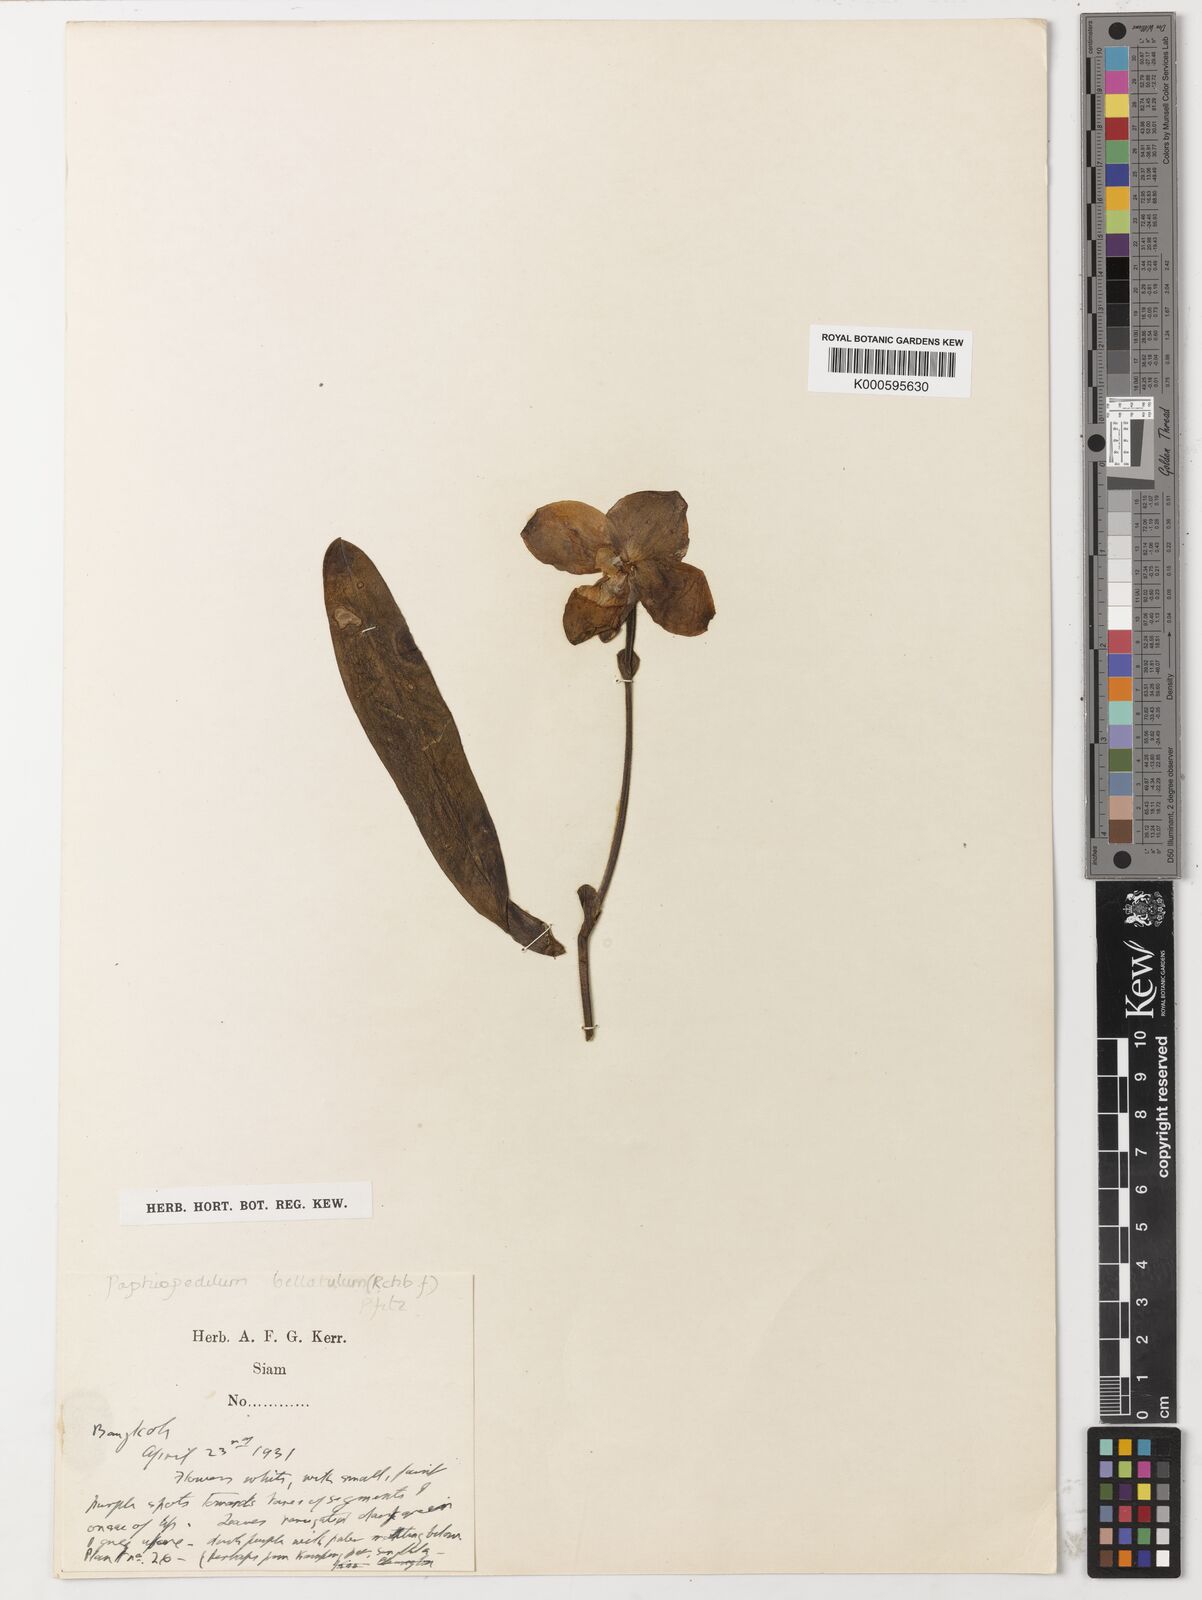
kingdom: Plantae
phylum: Tracheophyta
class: Liliopsida
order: Asparagales
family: Orchidaceae
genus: Paphiopedilum
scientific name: Paphiopedilum niveum
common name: Snow-white paphiopedilum
